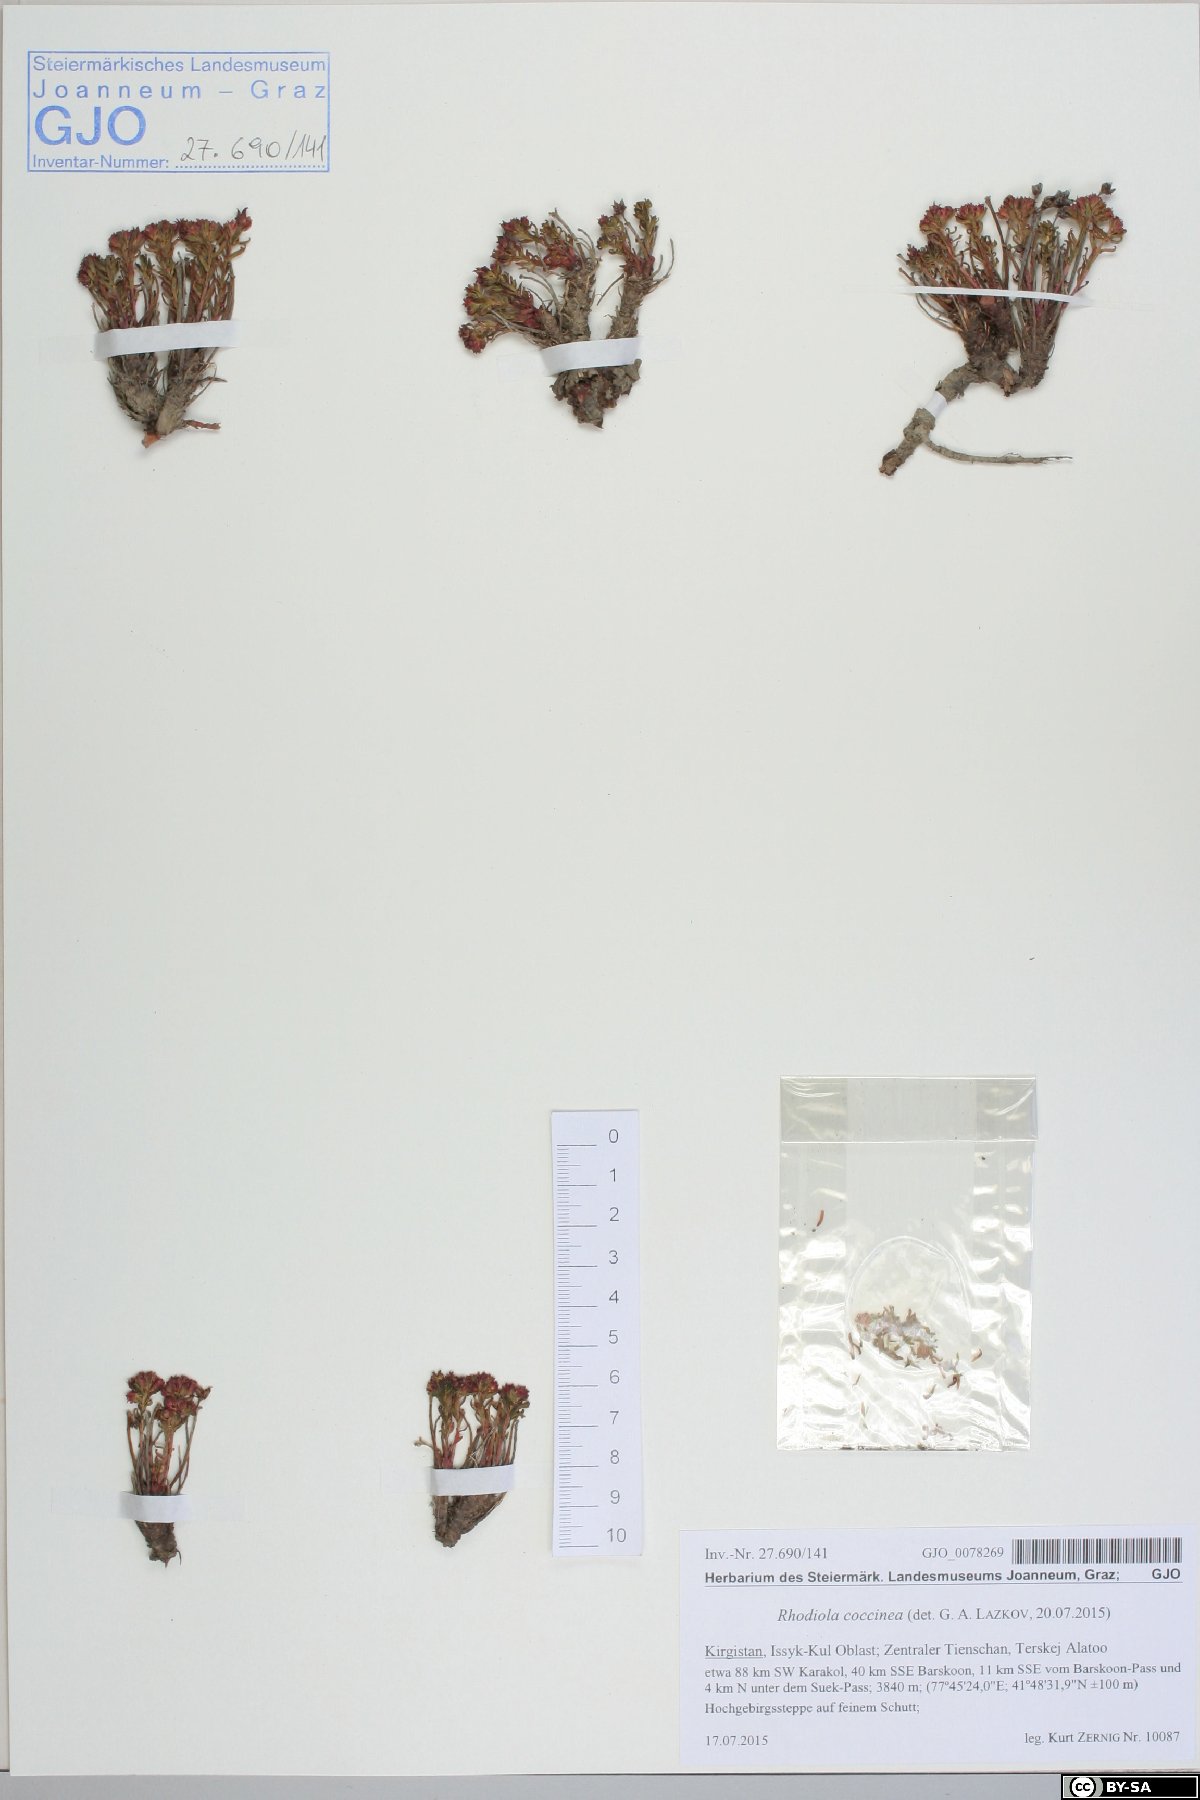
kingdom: Plantae
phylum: Tracheophyta
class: Magnoliopsida
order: Saxifragales
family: Crassulaceae
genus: Rhodiola
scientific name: Rhodiola coccinea
